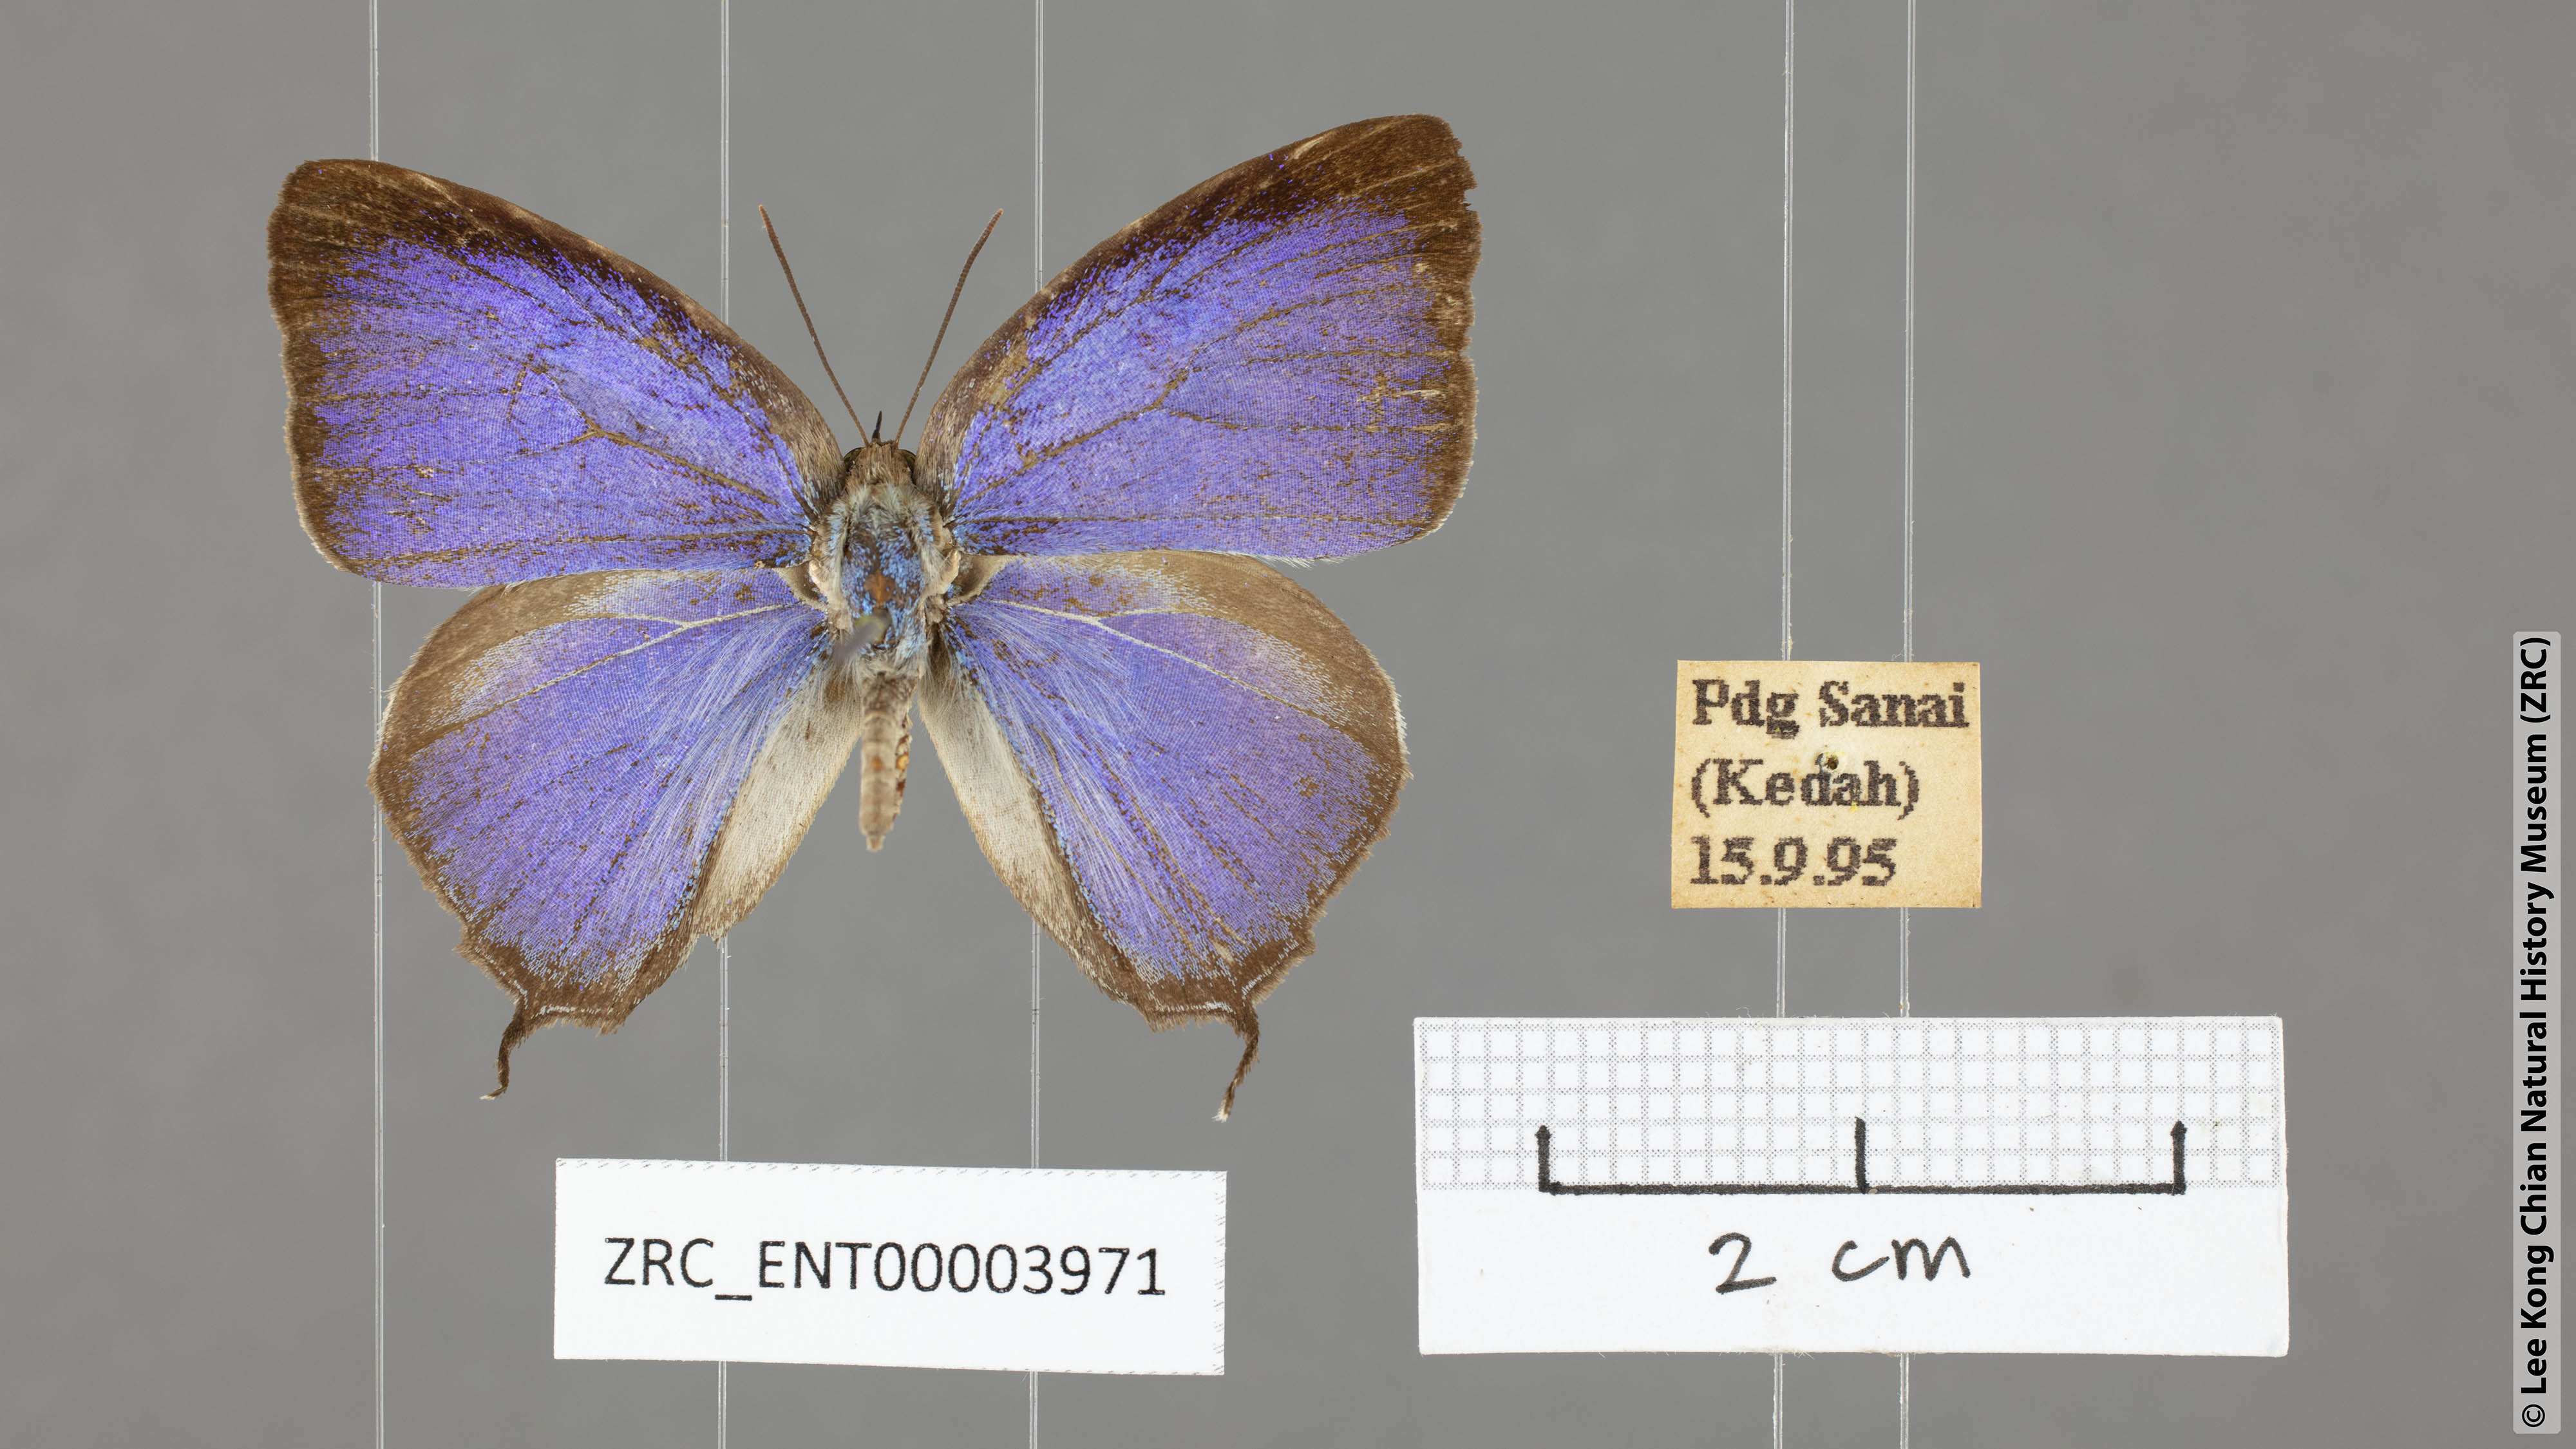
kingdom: Animalia
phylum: Arthropoda
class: Insecta
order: Lepidoptera
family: Lycaenidae
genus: Arhopala
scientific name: Arhopala ijauensis
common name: White-banded oakblue
